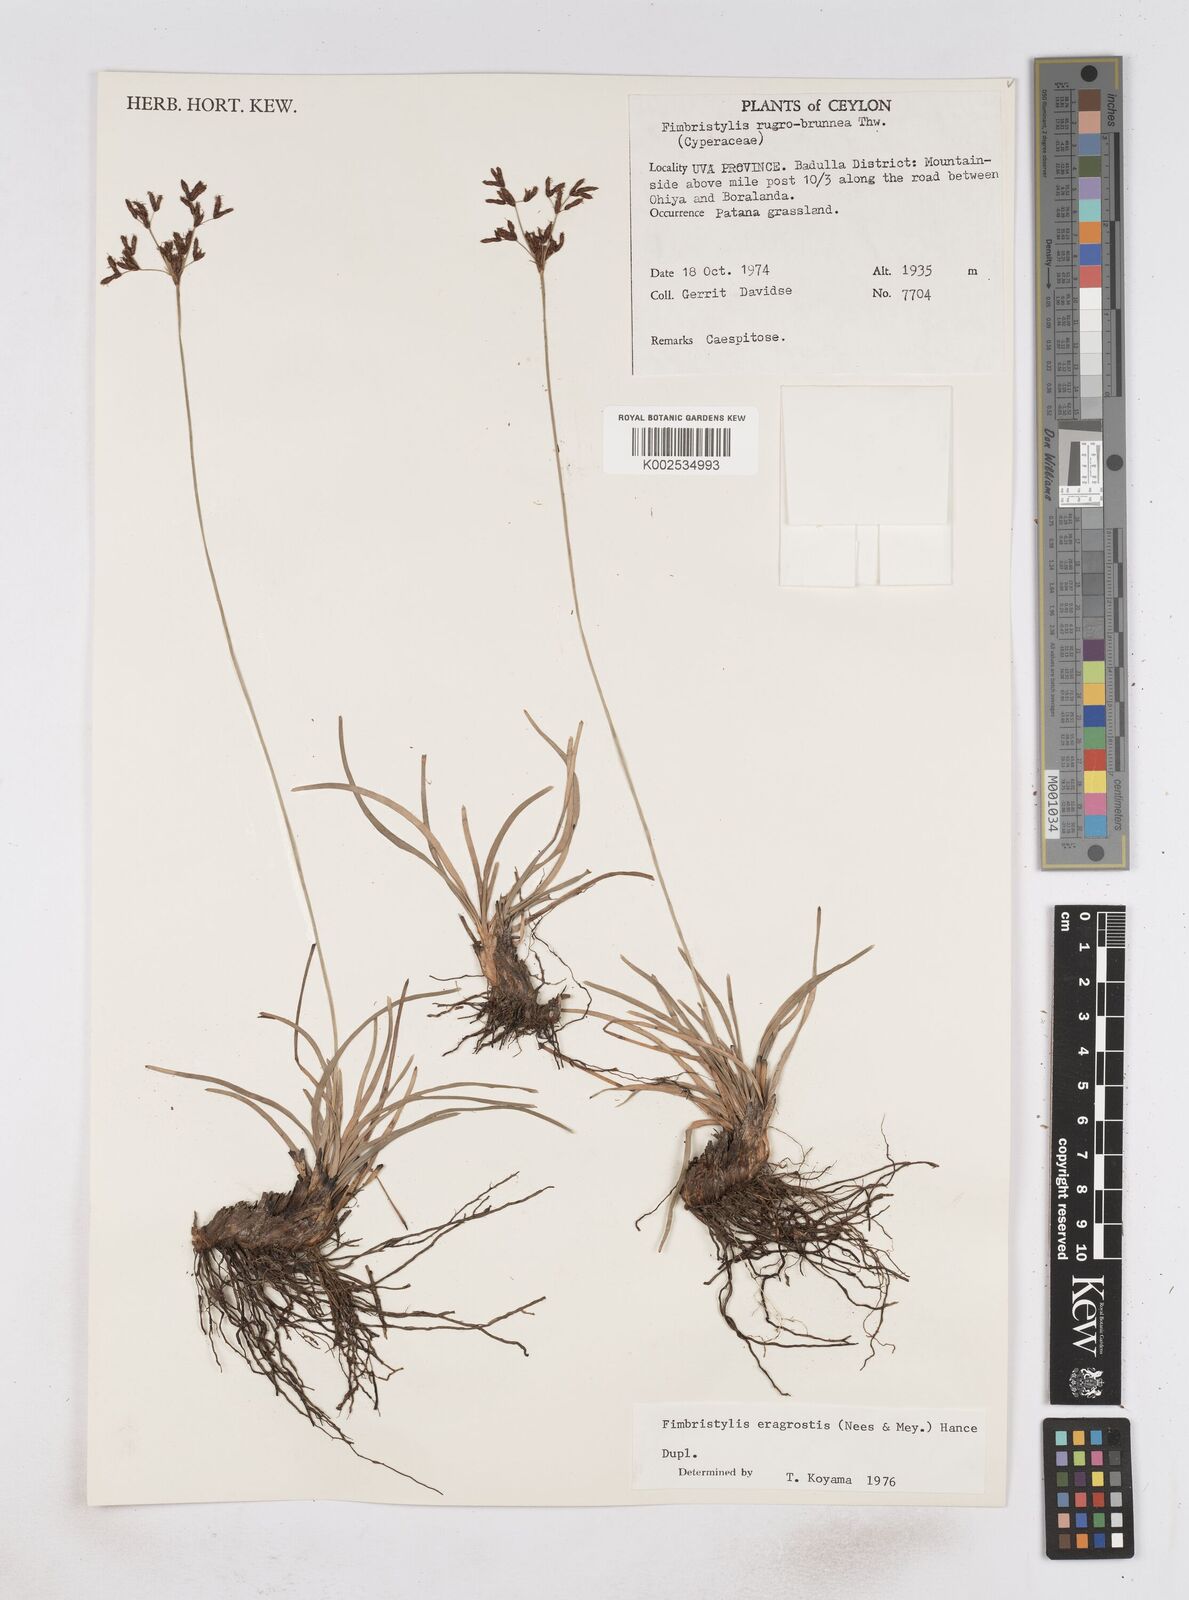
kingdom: Plantae
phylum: Tracheophyta
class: Liliopsida
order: Poales
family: Cyperaceae
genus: Fimbristylis
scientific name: Fimbristylis nigrobrunnea
